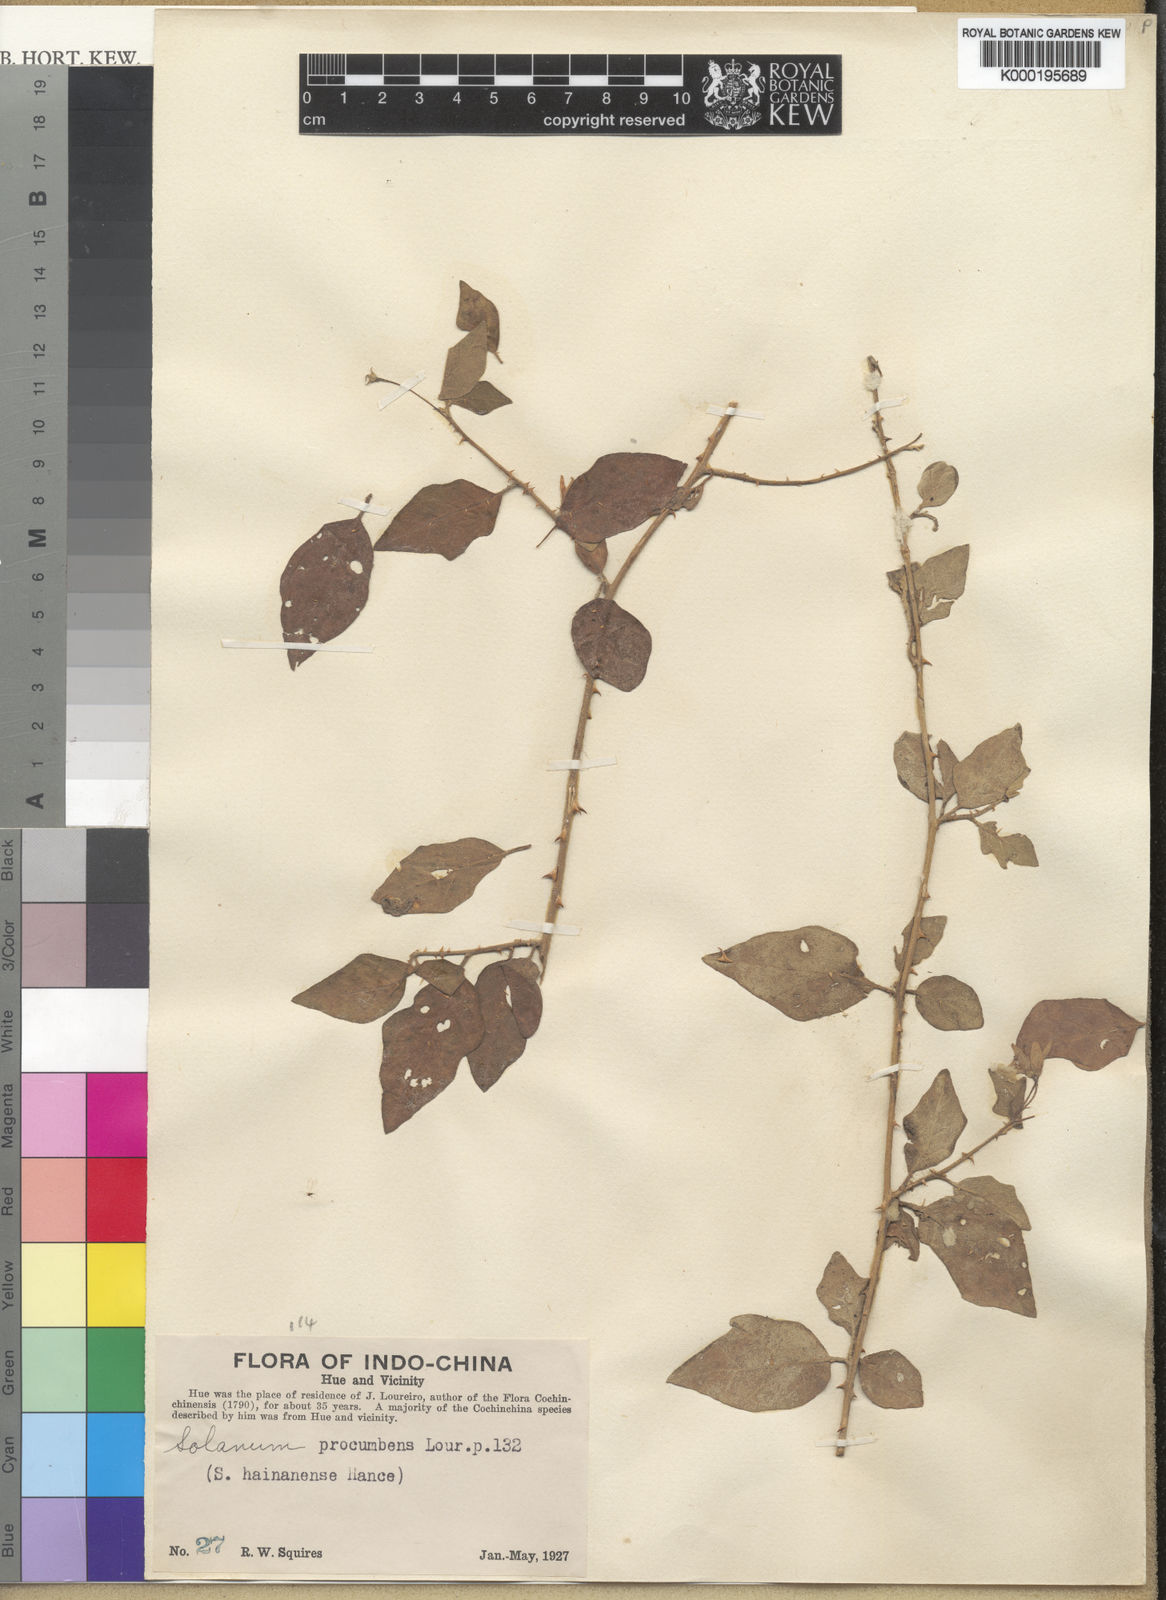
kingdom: Plantae
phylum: Tracheophyta
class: Magnoliopsida
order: Solanales
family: Solanaceae
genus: Solanum
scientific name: Solanum procumbens
